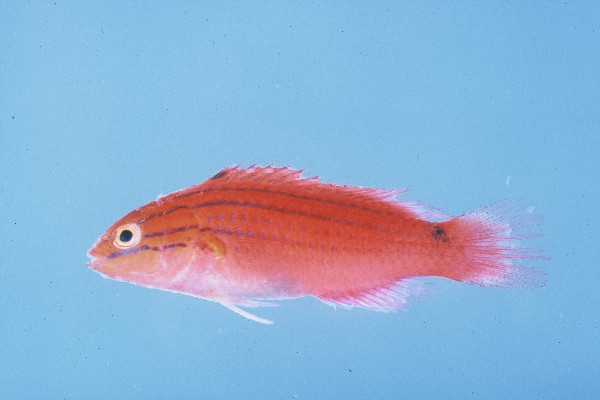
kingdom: Animalia
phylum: Chordata
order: Perciformes
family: Labridae
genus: Cirrhilabrus
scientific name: Cirrhilabrus rubriventralis
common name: Social wrasse
